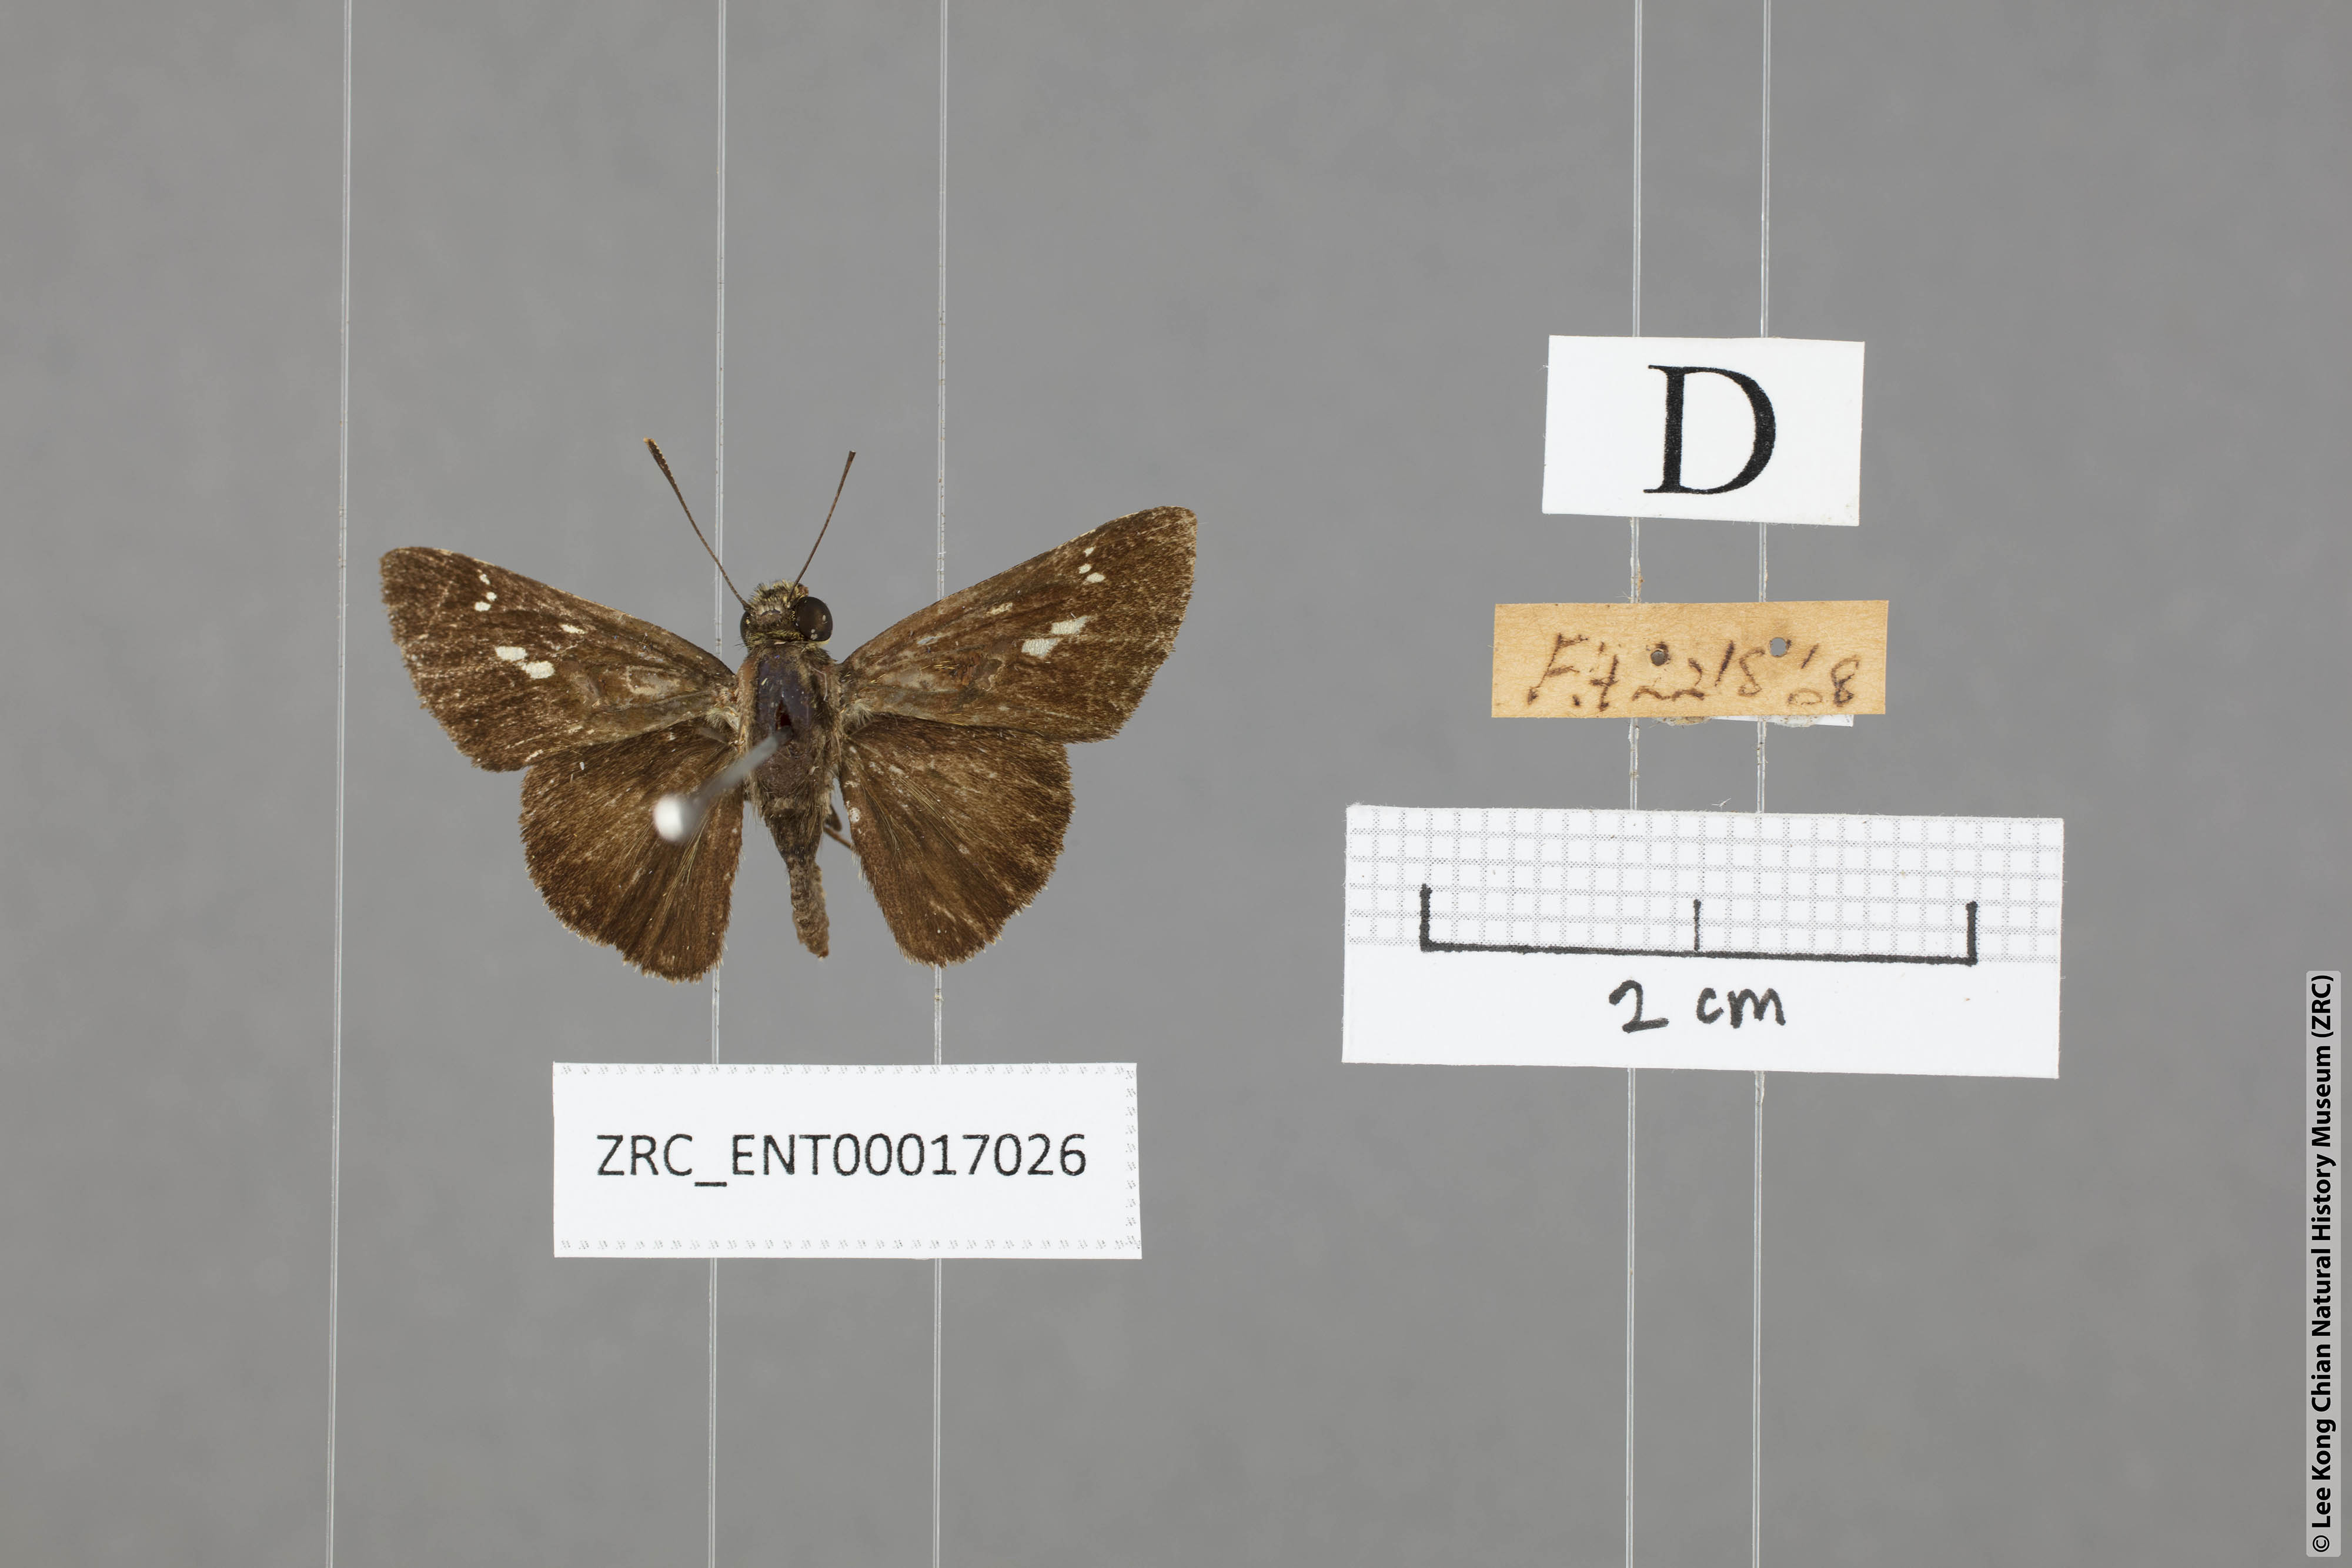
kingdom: Animalia
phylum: Arthropoda
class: Insecta
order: Lepidoptera
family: Hesperiidae
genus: Halpe
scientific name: Halpe pelethronix
